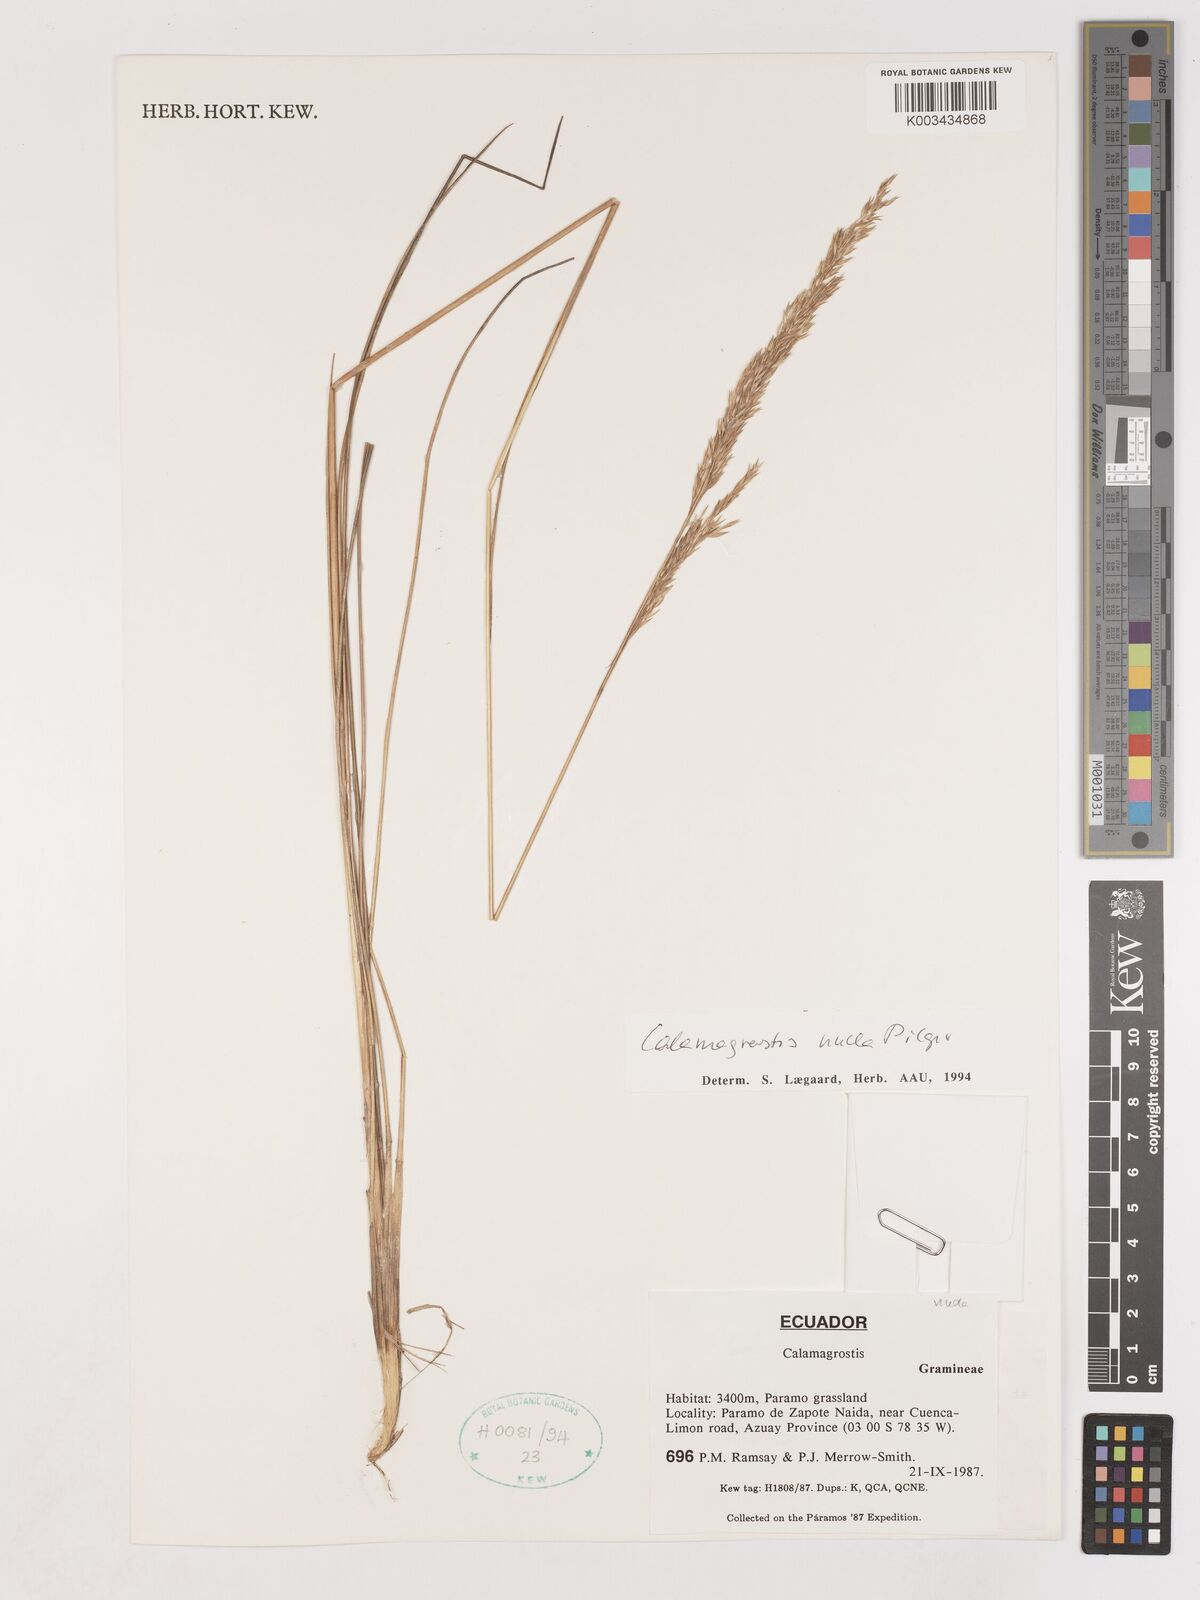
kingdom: Plantae
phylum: Tracheophyta
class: Liliopsida
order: Poales
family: Poaceae
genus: Calamagrostis
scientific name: Calamagrostis bogotensis
